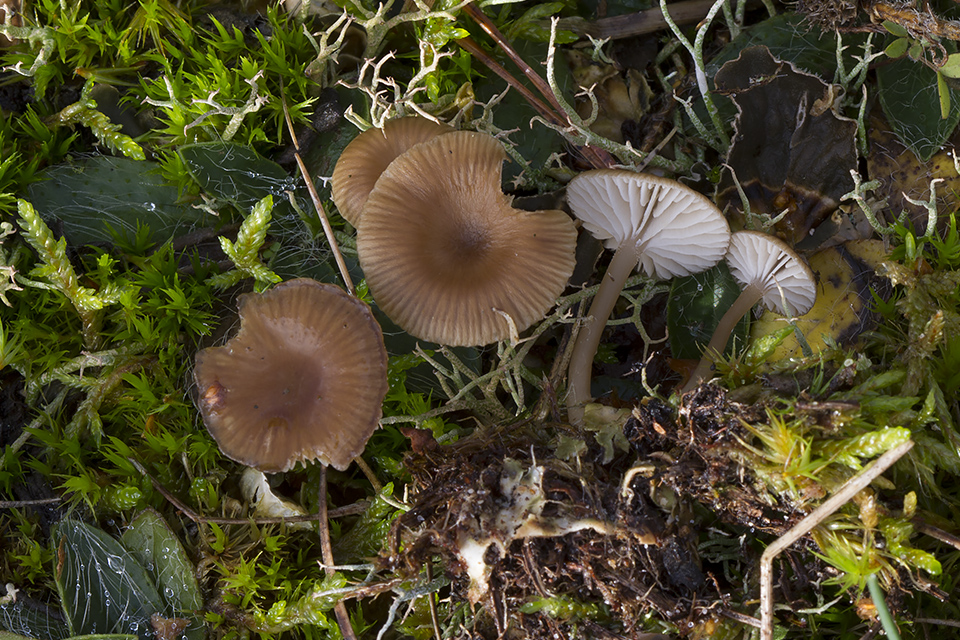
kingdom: Fungi
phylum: Basidiomycota
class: Agaricomycetes
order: Agaricales
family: Tricholomataceae
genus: Gamundia
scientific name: Gamundia xerophila
